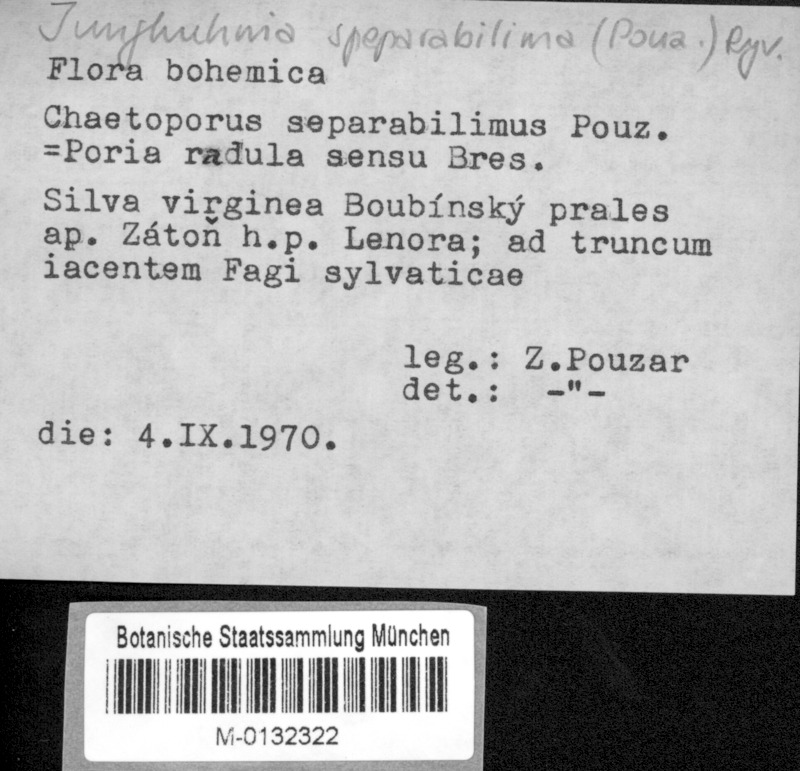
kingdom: Fungi
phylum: Basidiomycota
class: Agaricomycetes
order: Polyporales
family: Steccherinaceae
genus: Steccherinum
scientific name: Steccherinum lacerum
